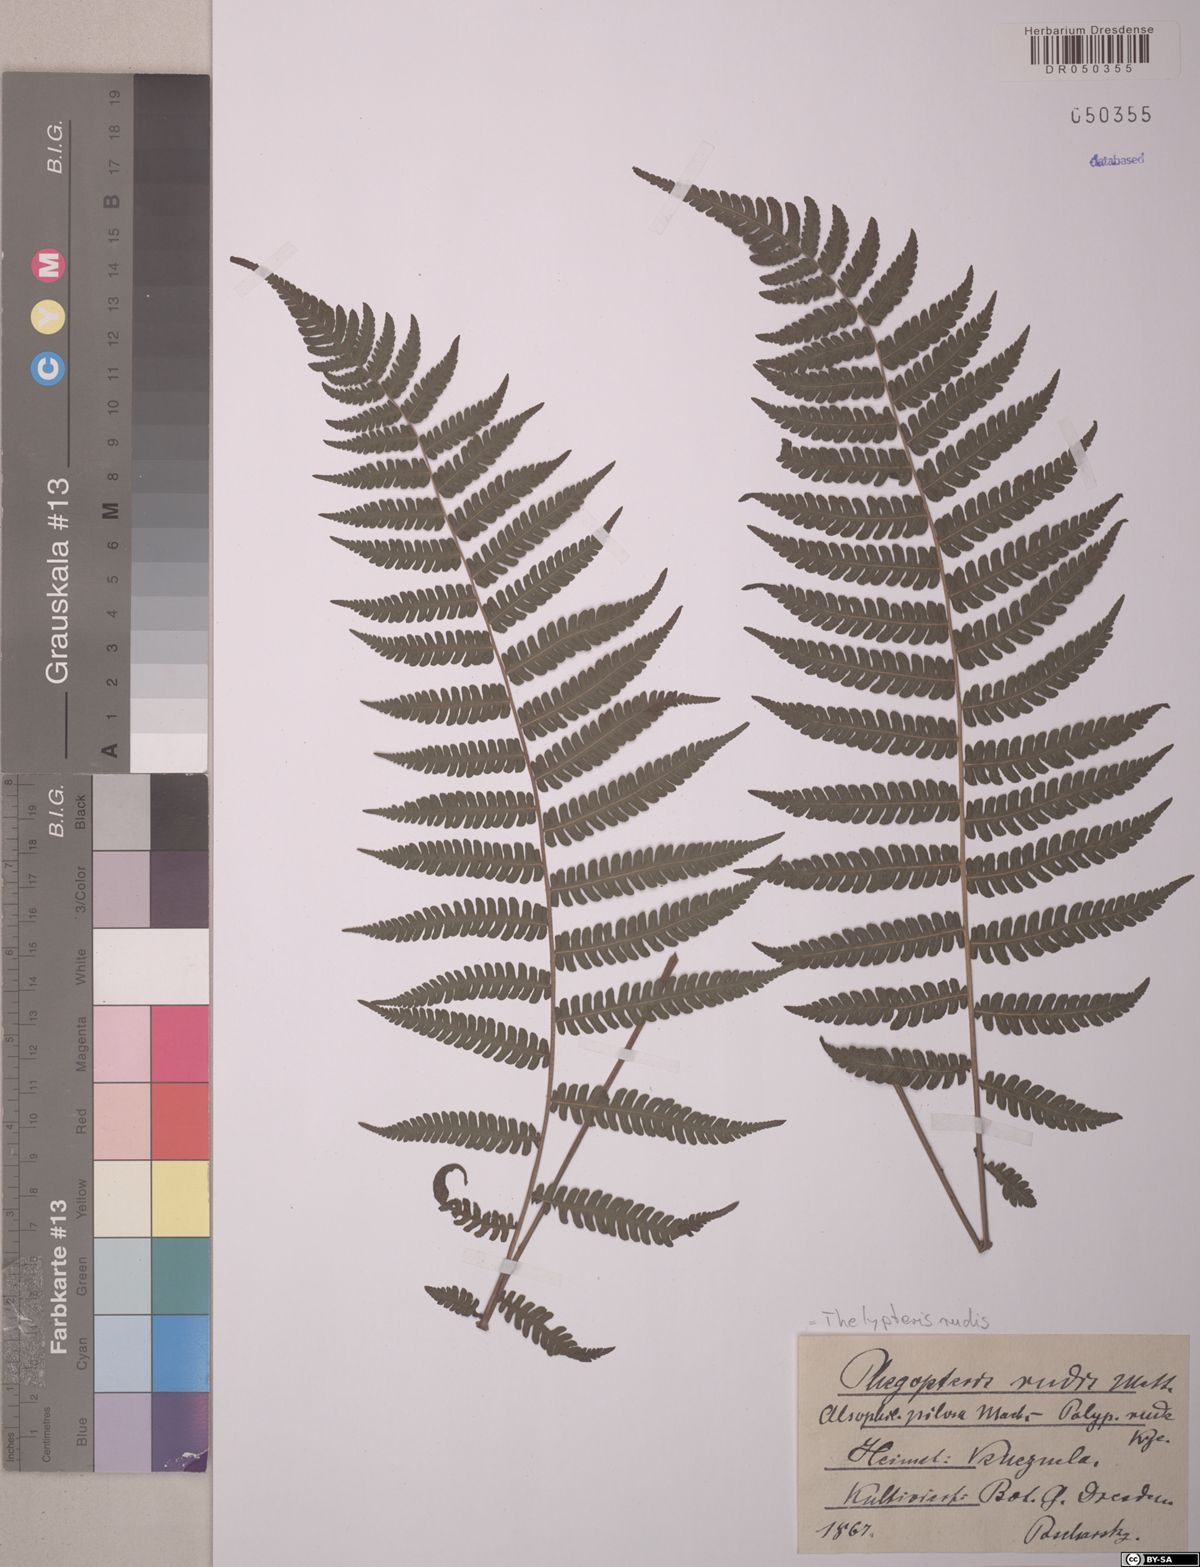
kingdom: Plantae
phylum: Tracheophyta
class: Polypodiopsida
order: Polypodiales
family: Thelypteridaceae
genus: Amauropelta
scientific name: Amauropelta rudis
